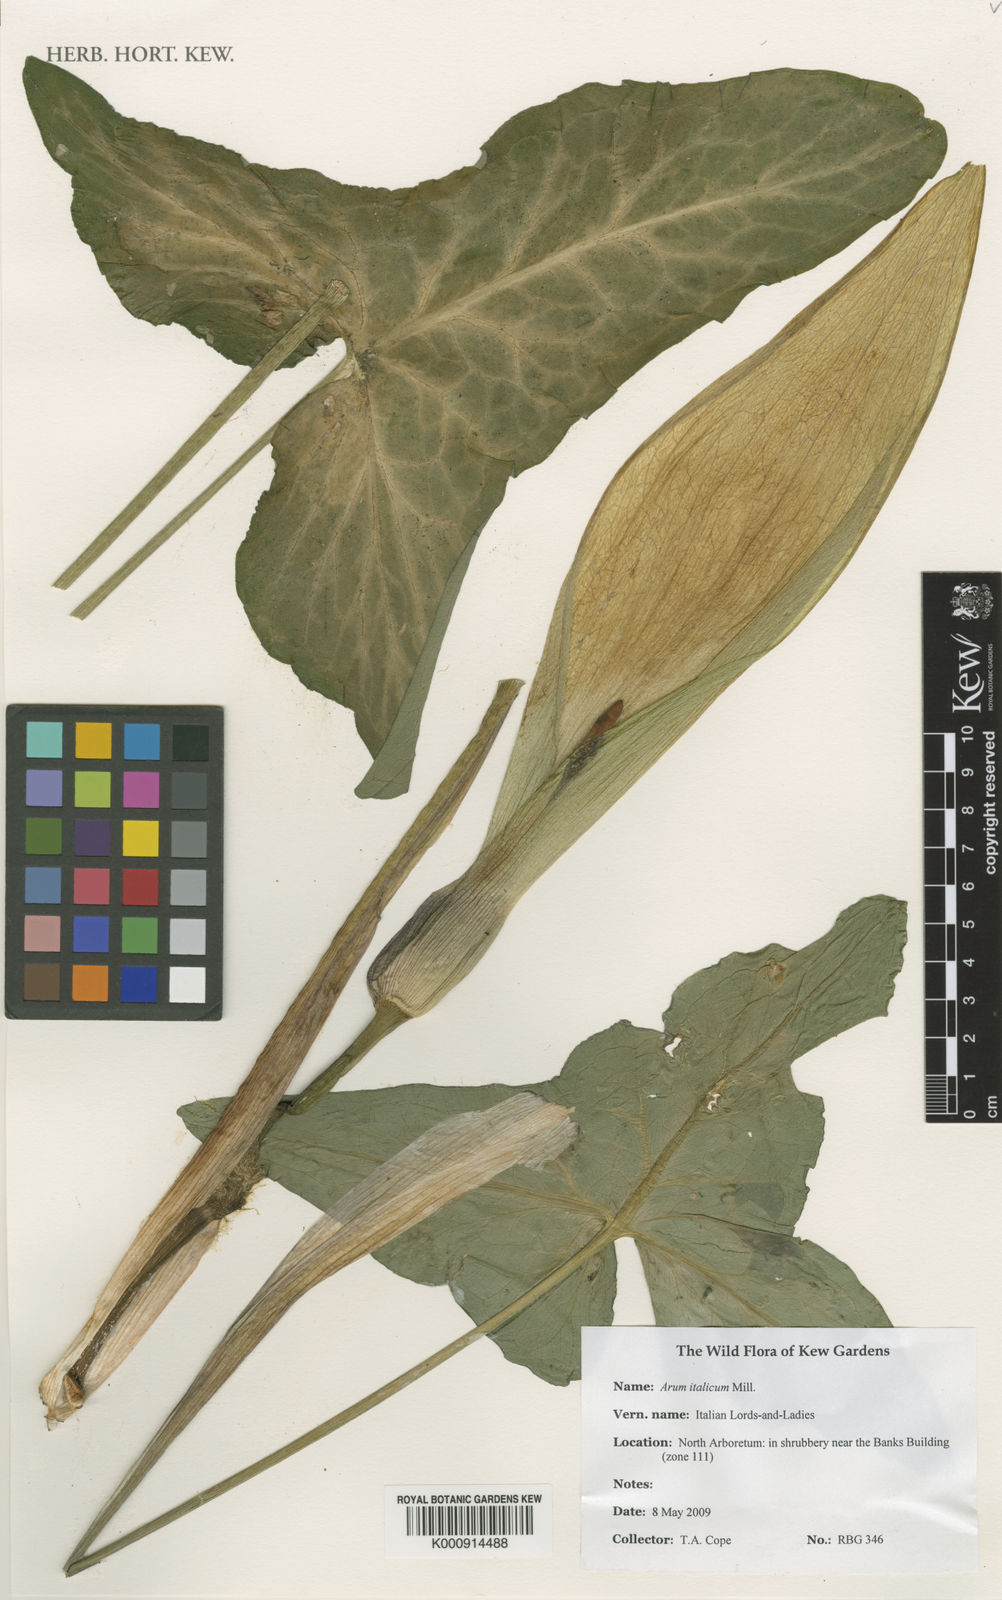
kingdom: Plantae
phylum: Tracheophyta
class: Liliopsida
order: Alismatales
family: Araceae
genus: Arum
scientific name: Arum italicum
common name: Italian lords-and-ladies
